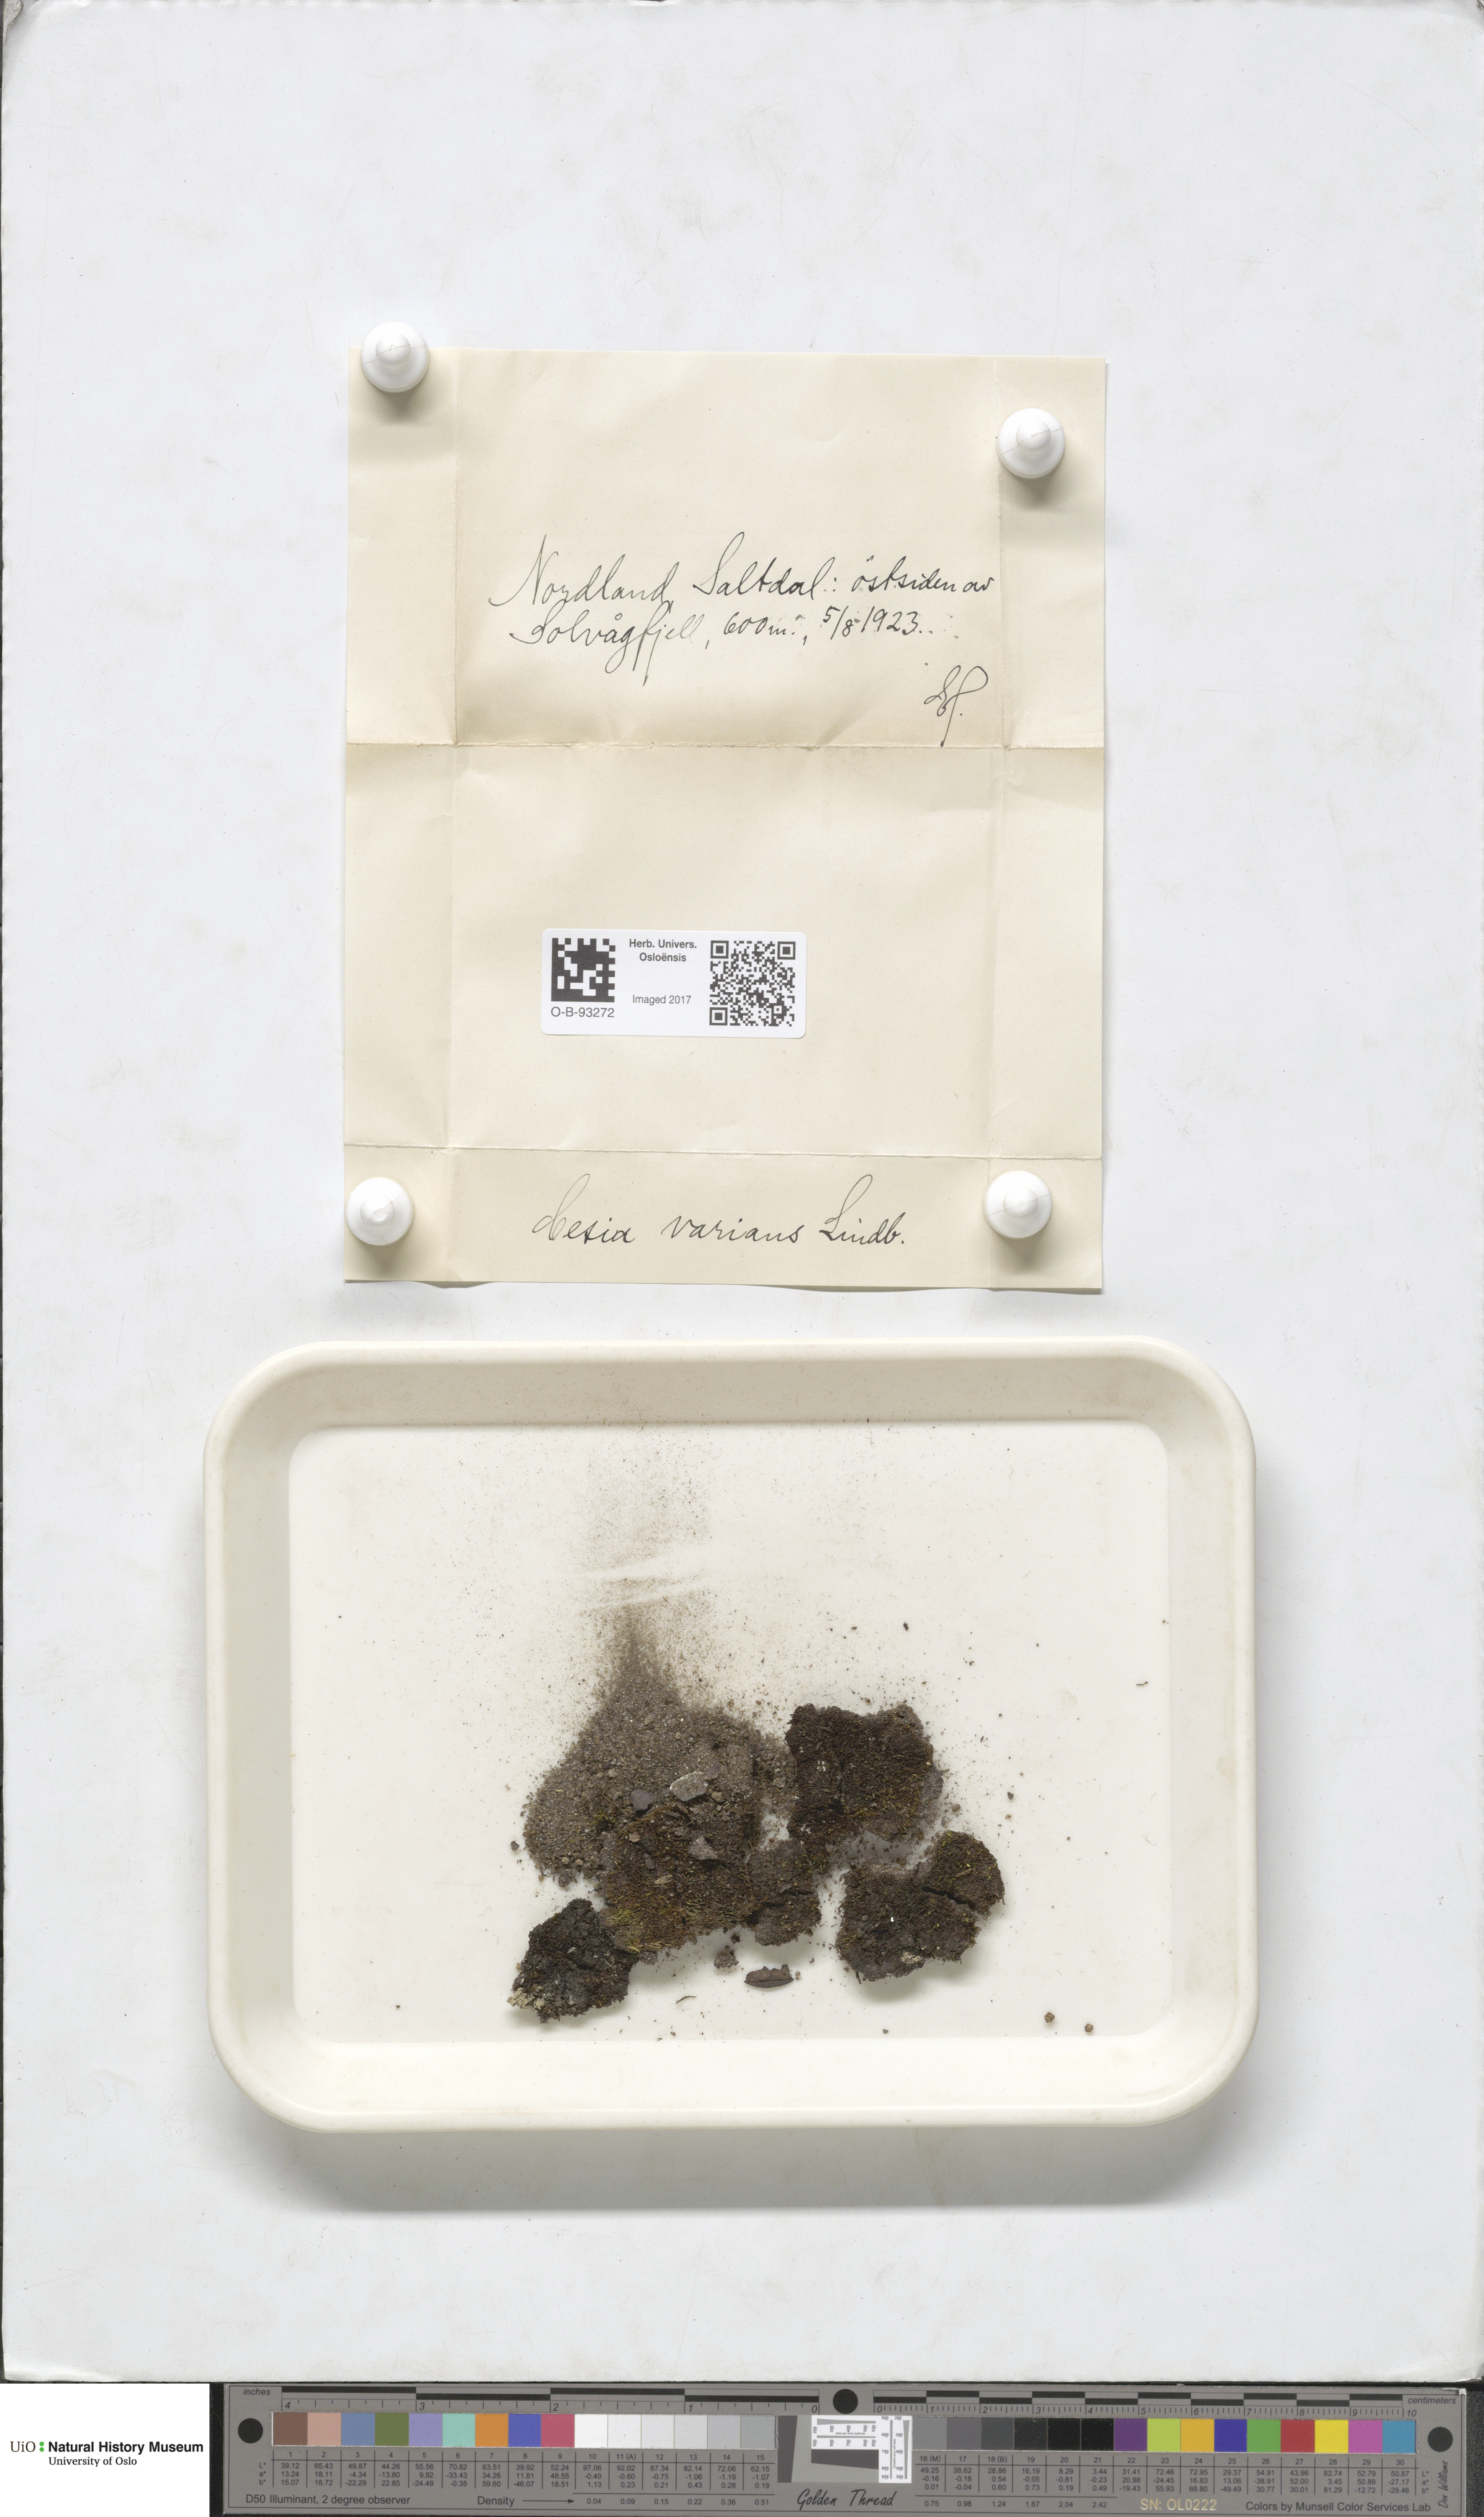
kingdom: Plantae
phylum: Marchantiophyta
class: Jungermanniopsida
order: Jungermanniales
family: Gymnomitriaceae
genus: Gymnomitrion
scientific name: Gymnomitrion brevissimum
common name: Snow rustwort
